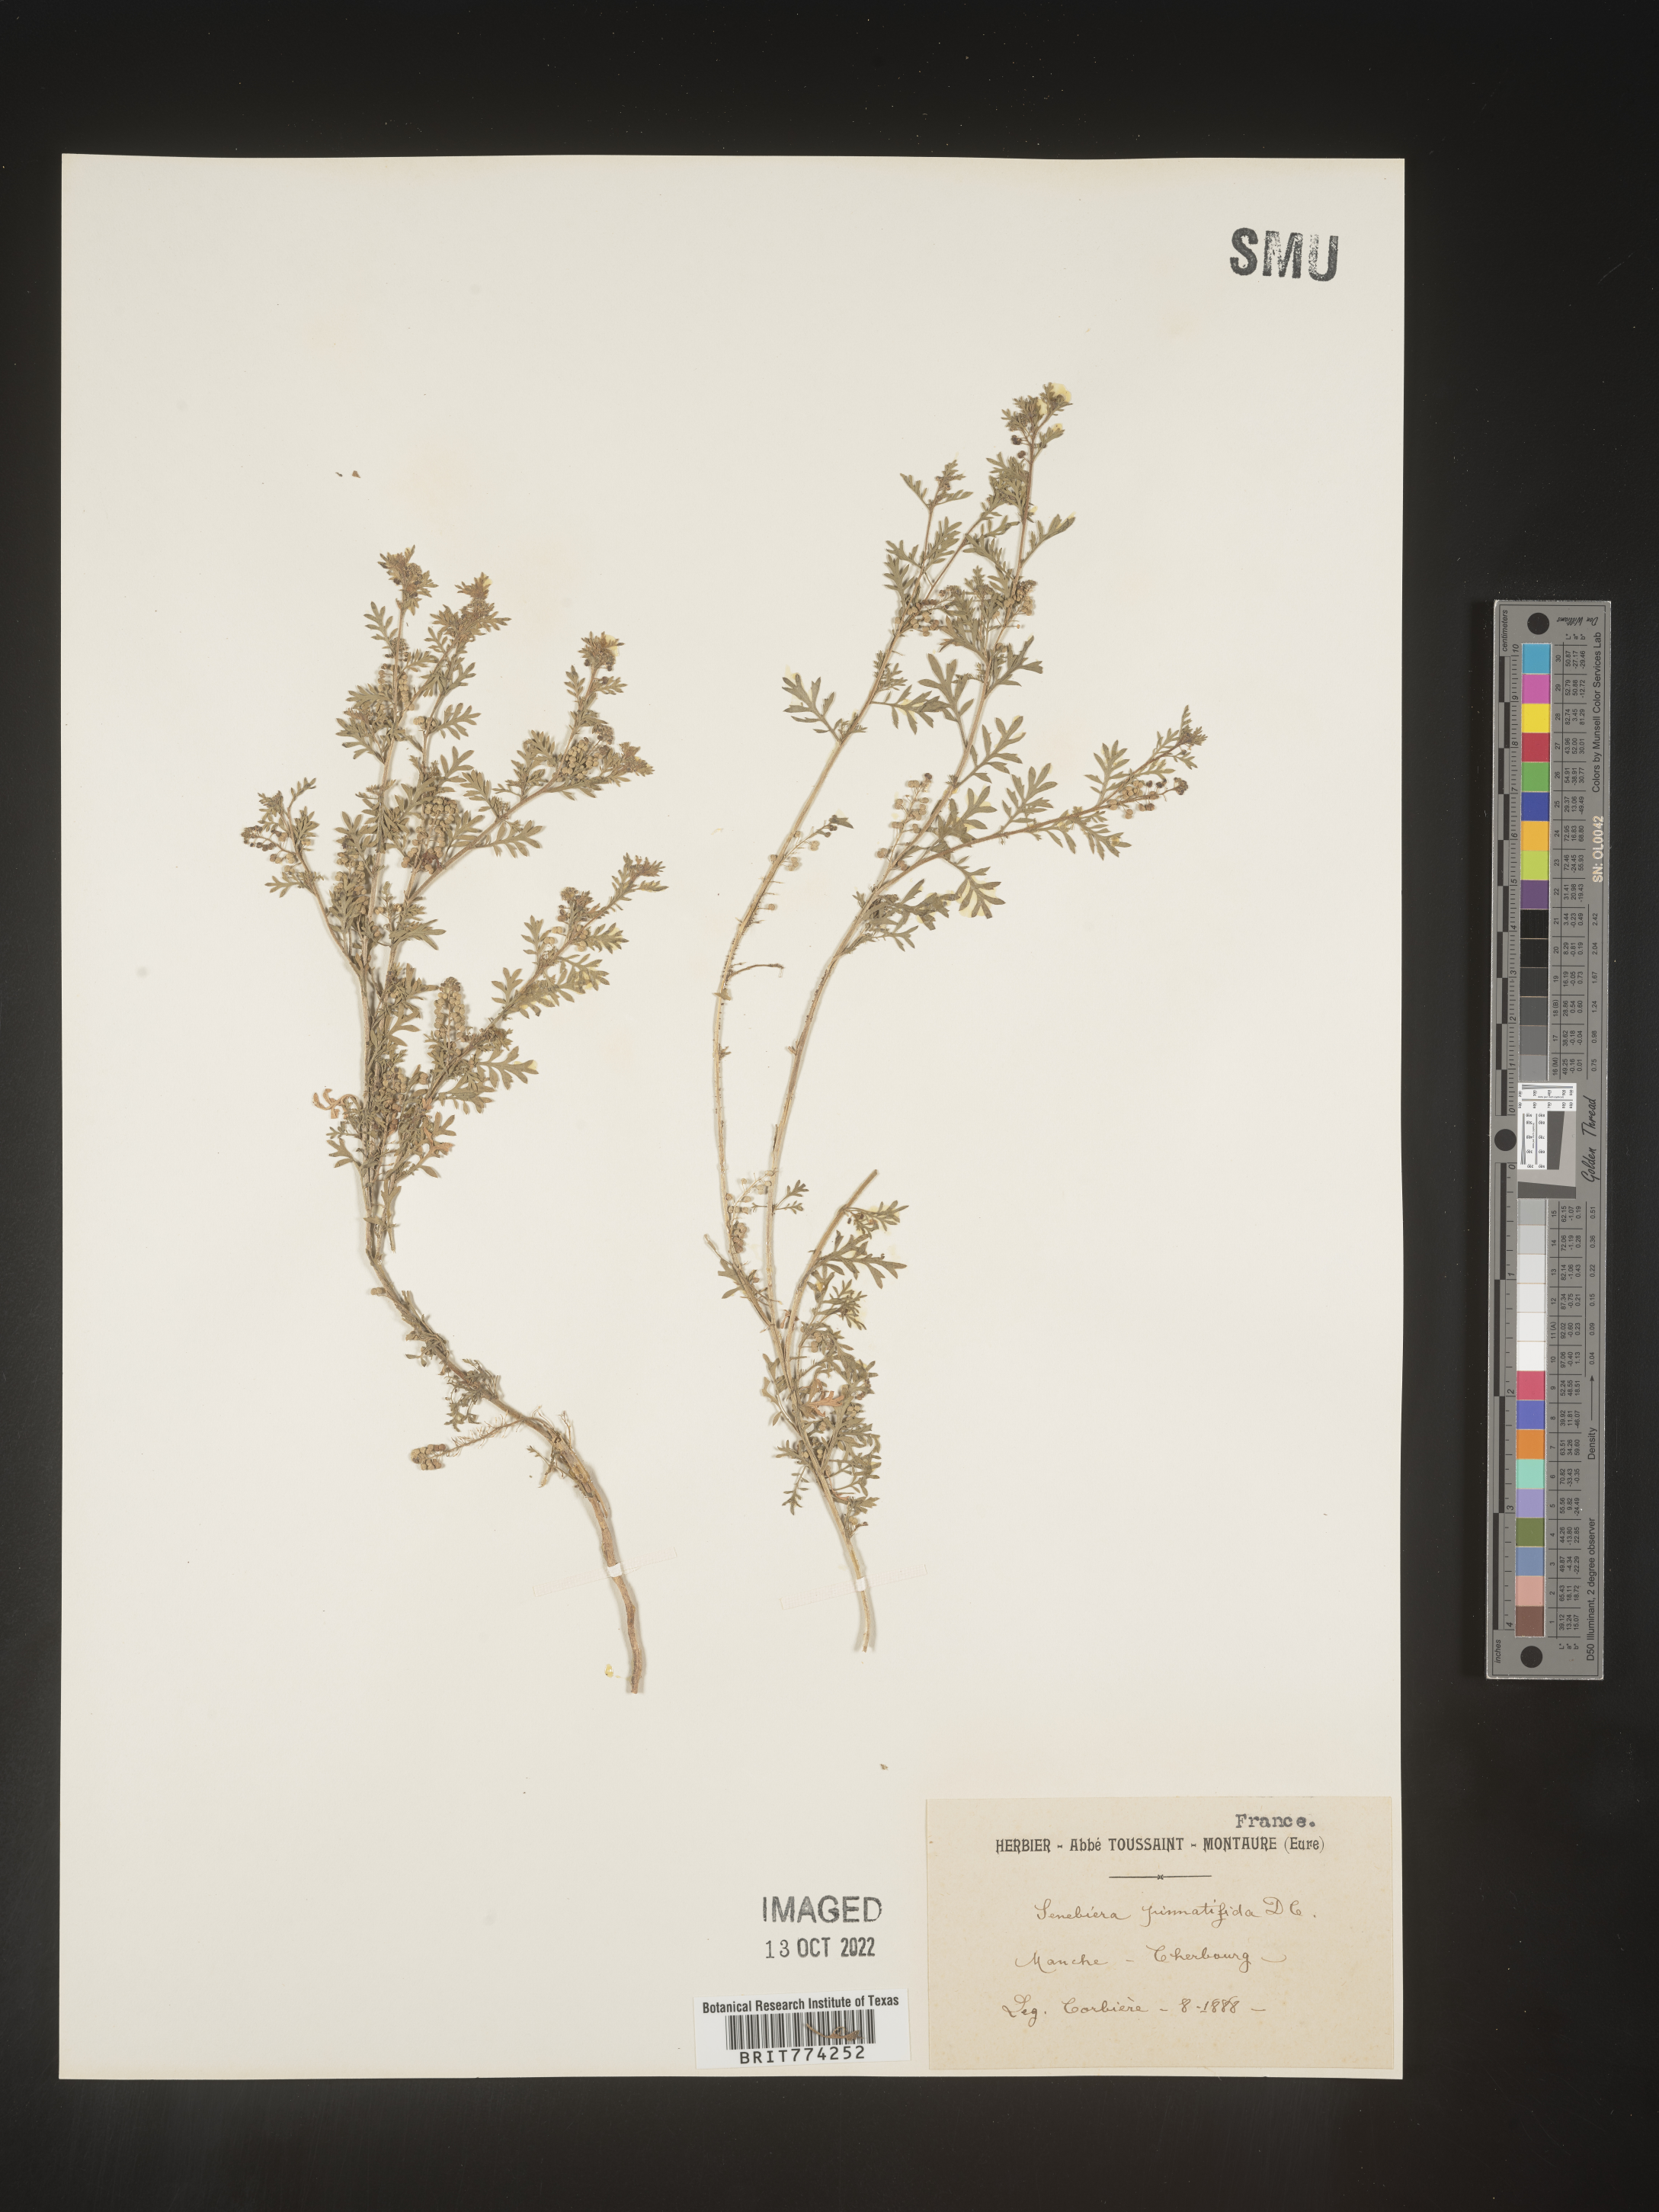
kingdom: Plantae
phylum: Tracheophyta
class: Magnoliopsida
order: Brassicales
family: Brassicaceae
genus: Coronopus
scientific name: Coronopus
